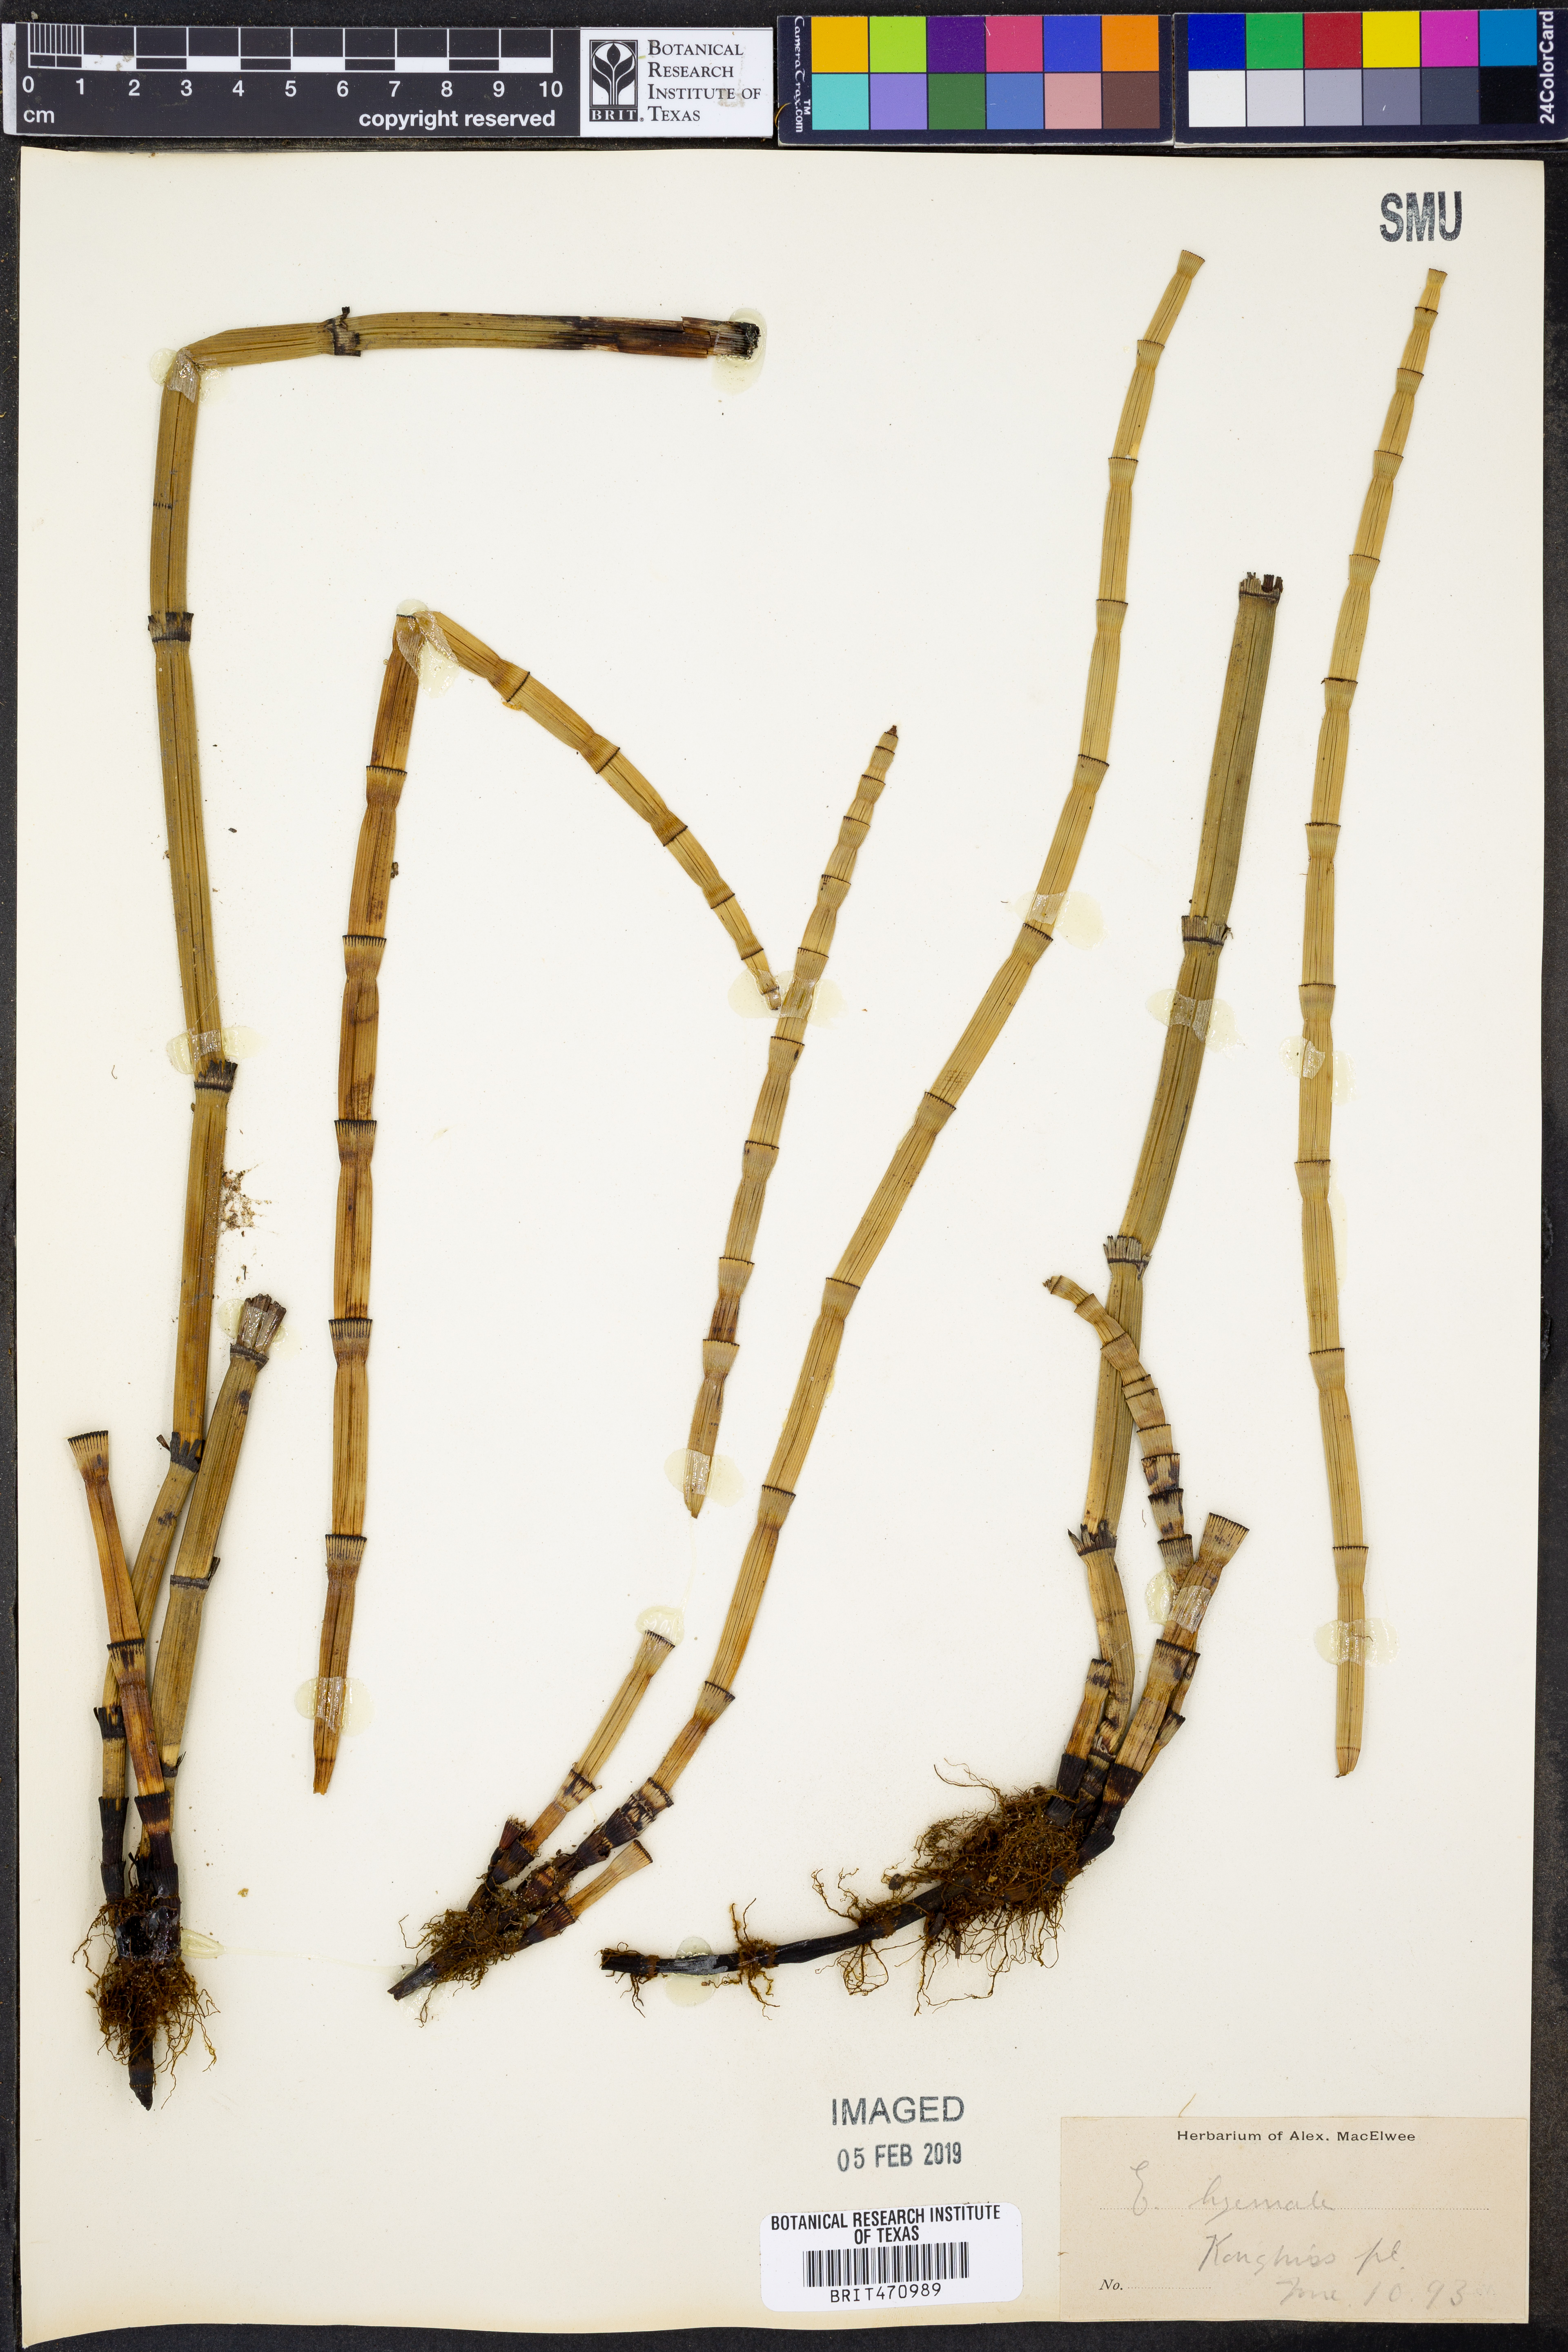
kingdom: Plantae
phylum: Tracheophyta
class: Polypodiopsida
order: Equisetales
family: Equisetaceae
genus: Equisetum
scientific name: Equisetum hyemale
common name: Rough horsetail
